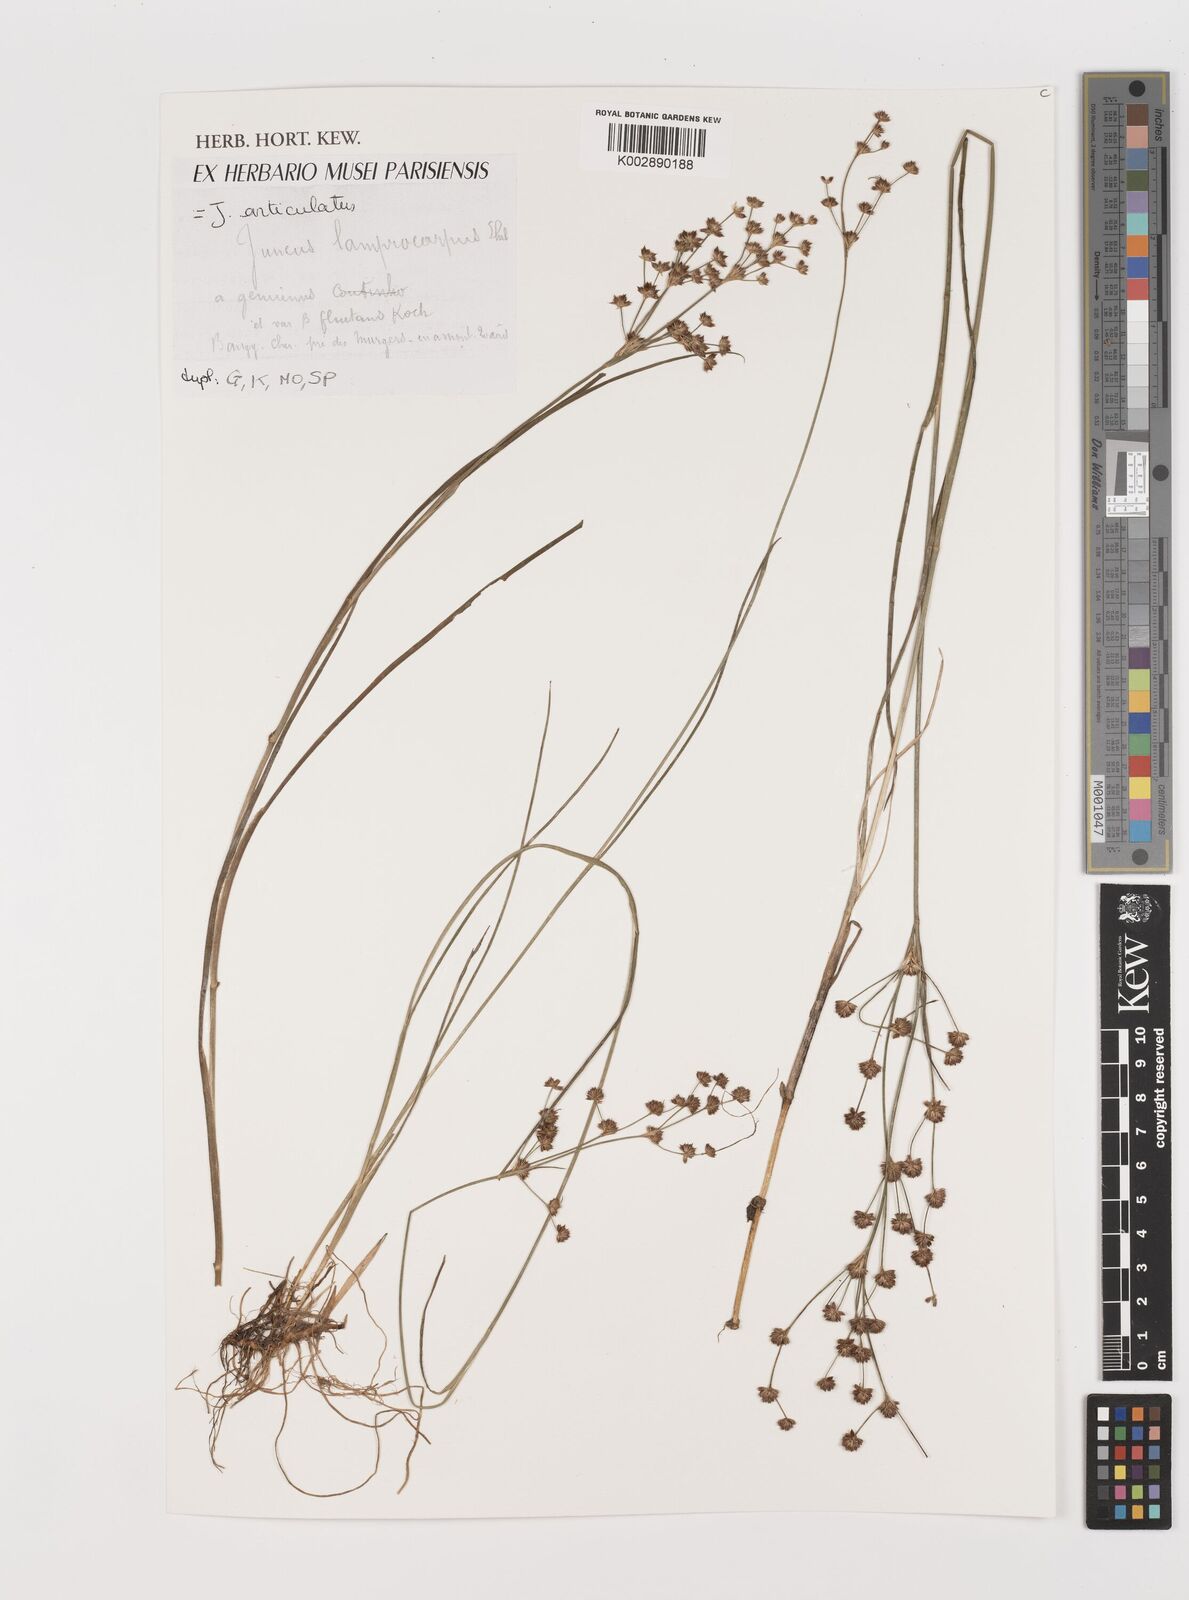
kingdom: Plantae
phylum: Tracheophyta
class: Liliopsida
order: Poales
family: Juncaceae
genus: Juncus
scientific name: Juncus articulatus
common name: Jointed rush
